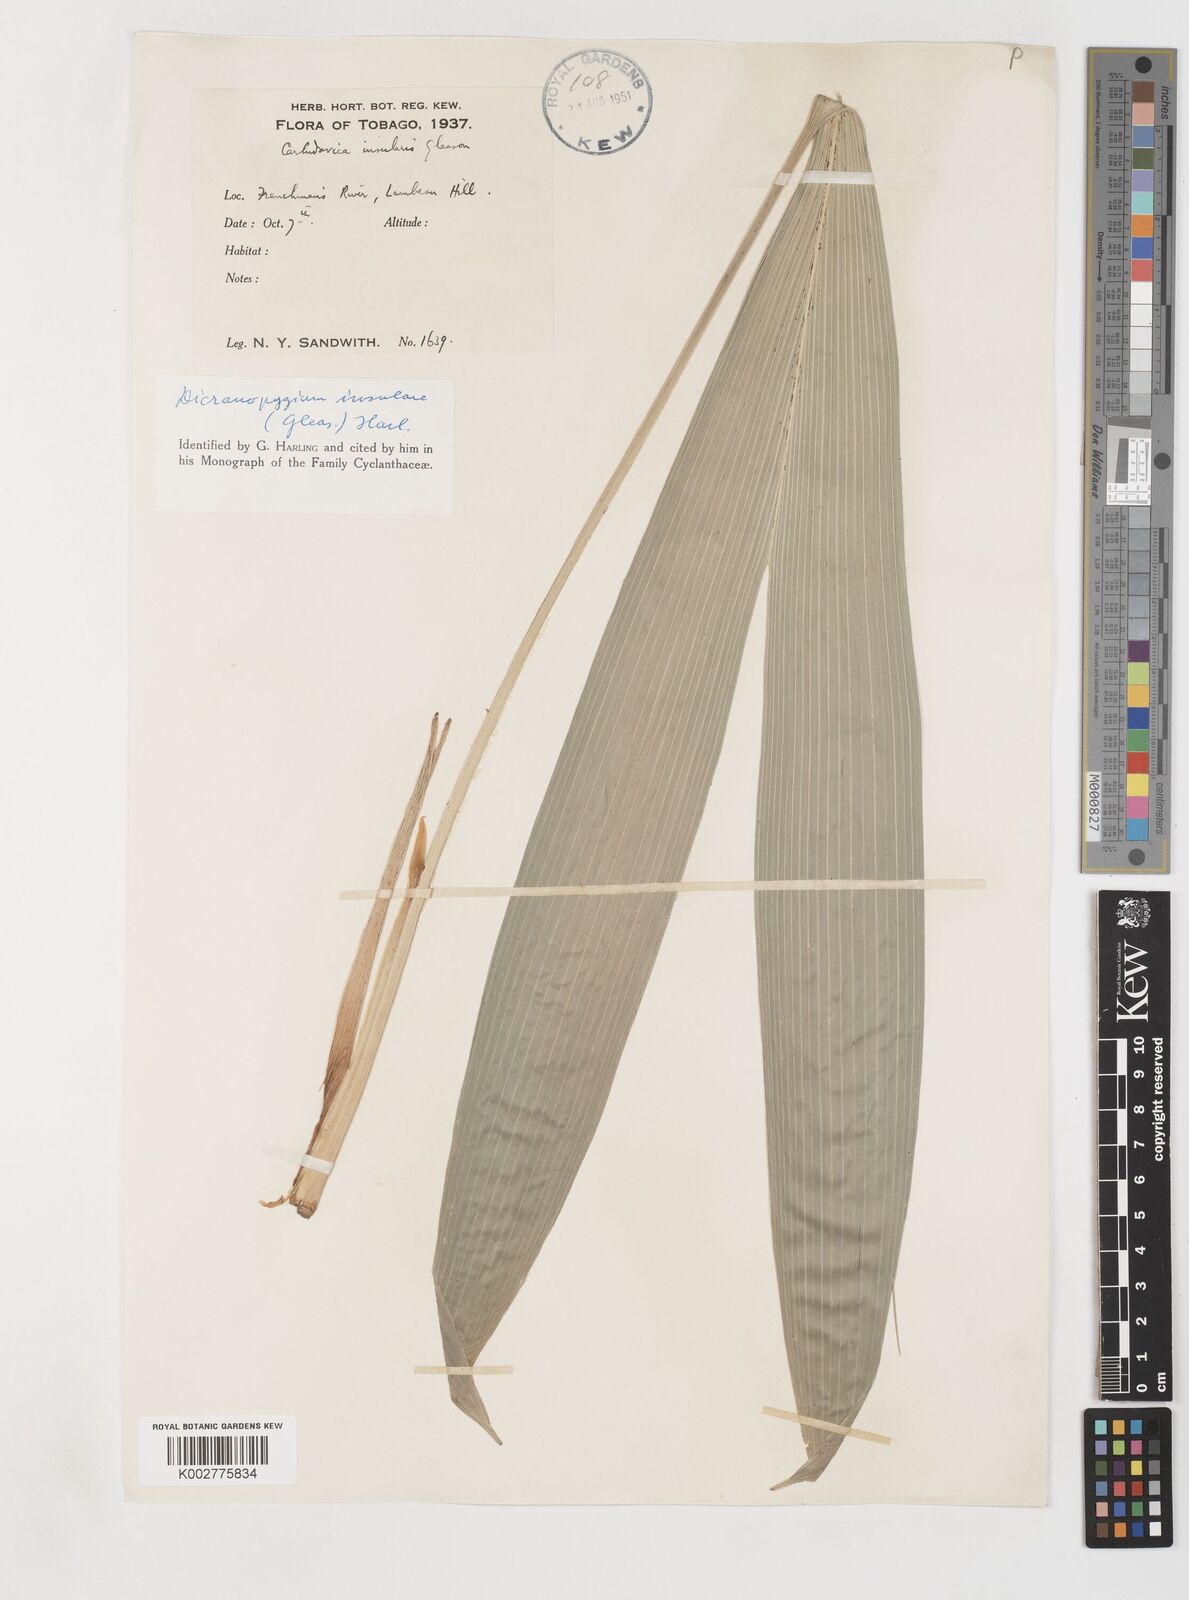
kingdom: Plantae
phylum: Tracheophyta
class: Liliopsida
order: Pandanales
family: Cyclanthaceae
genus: Dicranopygium
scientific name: Dicranopygium insulare
